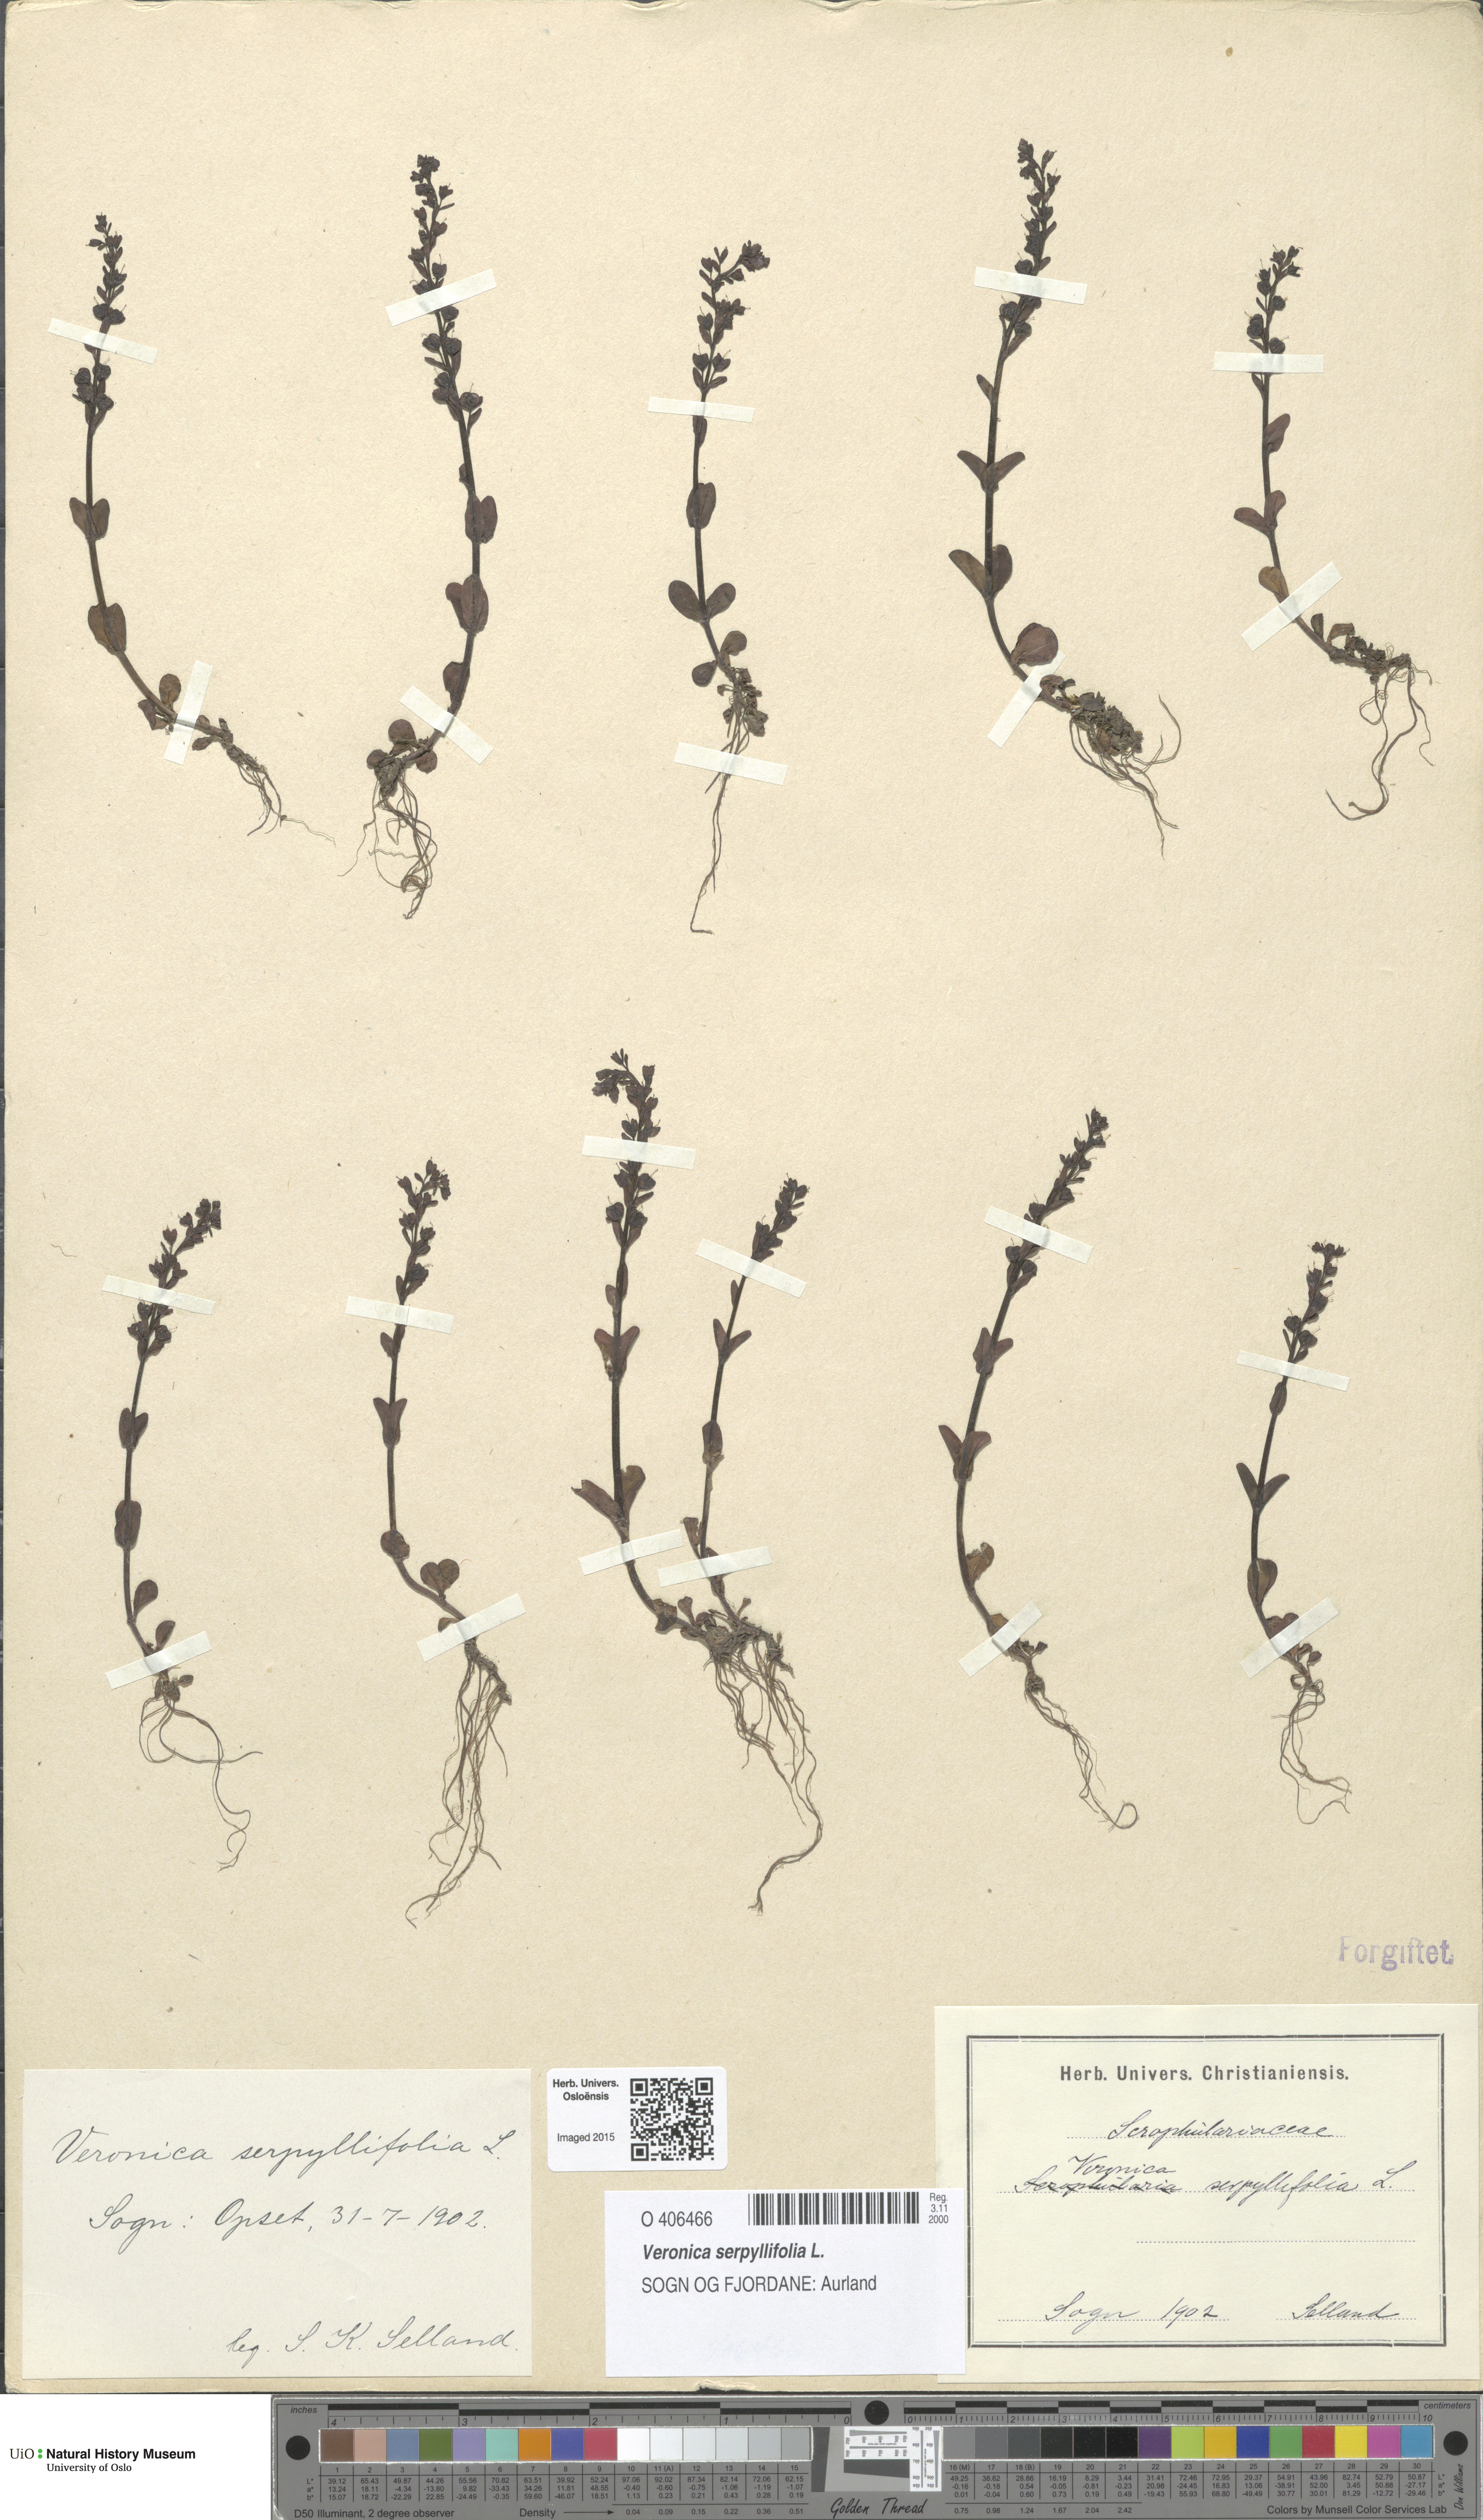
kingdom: Plantae
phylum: Tracheophyta
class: Magnoliopsida
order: Lamiales
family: Plantaginaceae
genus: Veronica
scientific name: Veronica serpyllifolia
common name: Thyme-leaved speedwell
